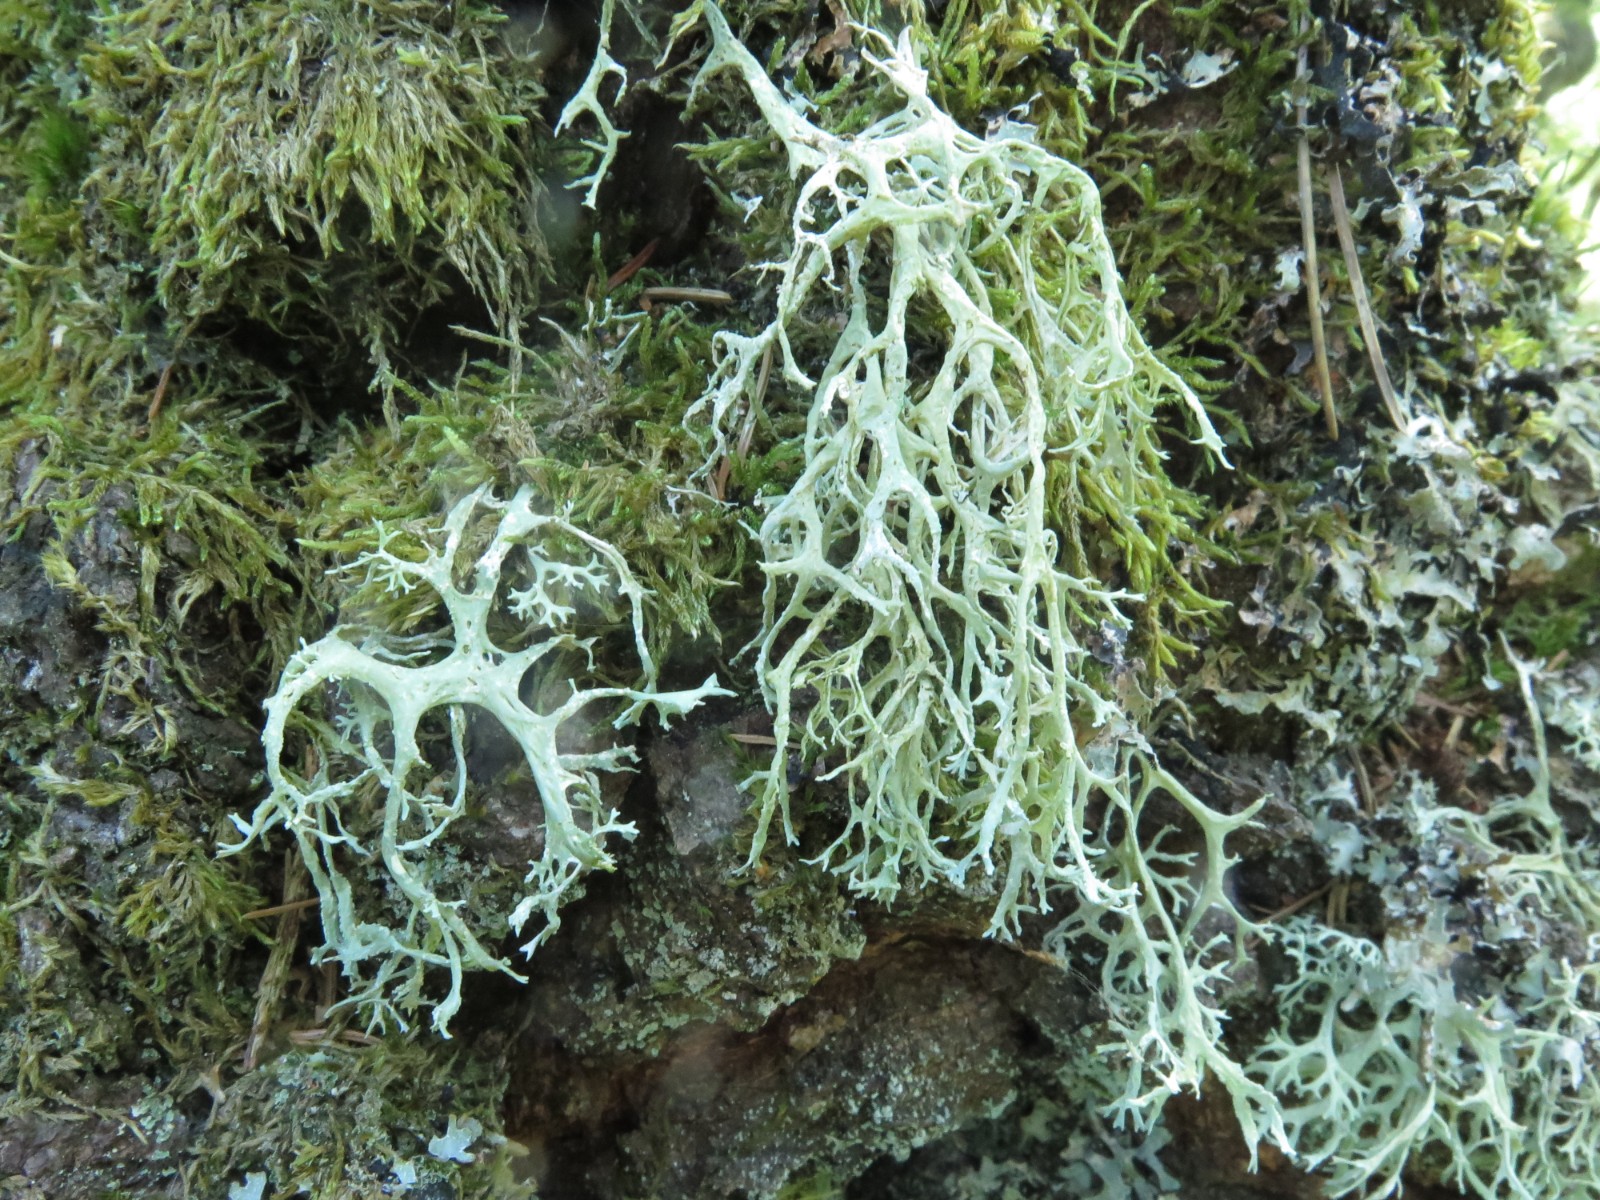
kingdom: Fungi
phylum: Ascomycota
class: Lecanoromycetes
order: Lecanorales
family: Parmeliaceae
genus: Evernia
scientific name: Evernia prunastri
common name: almindelig slåenlav
